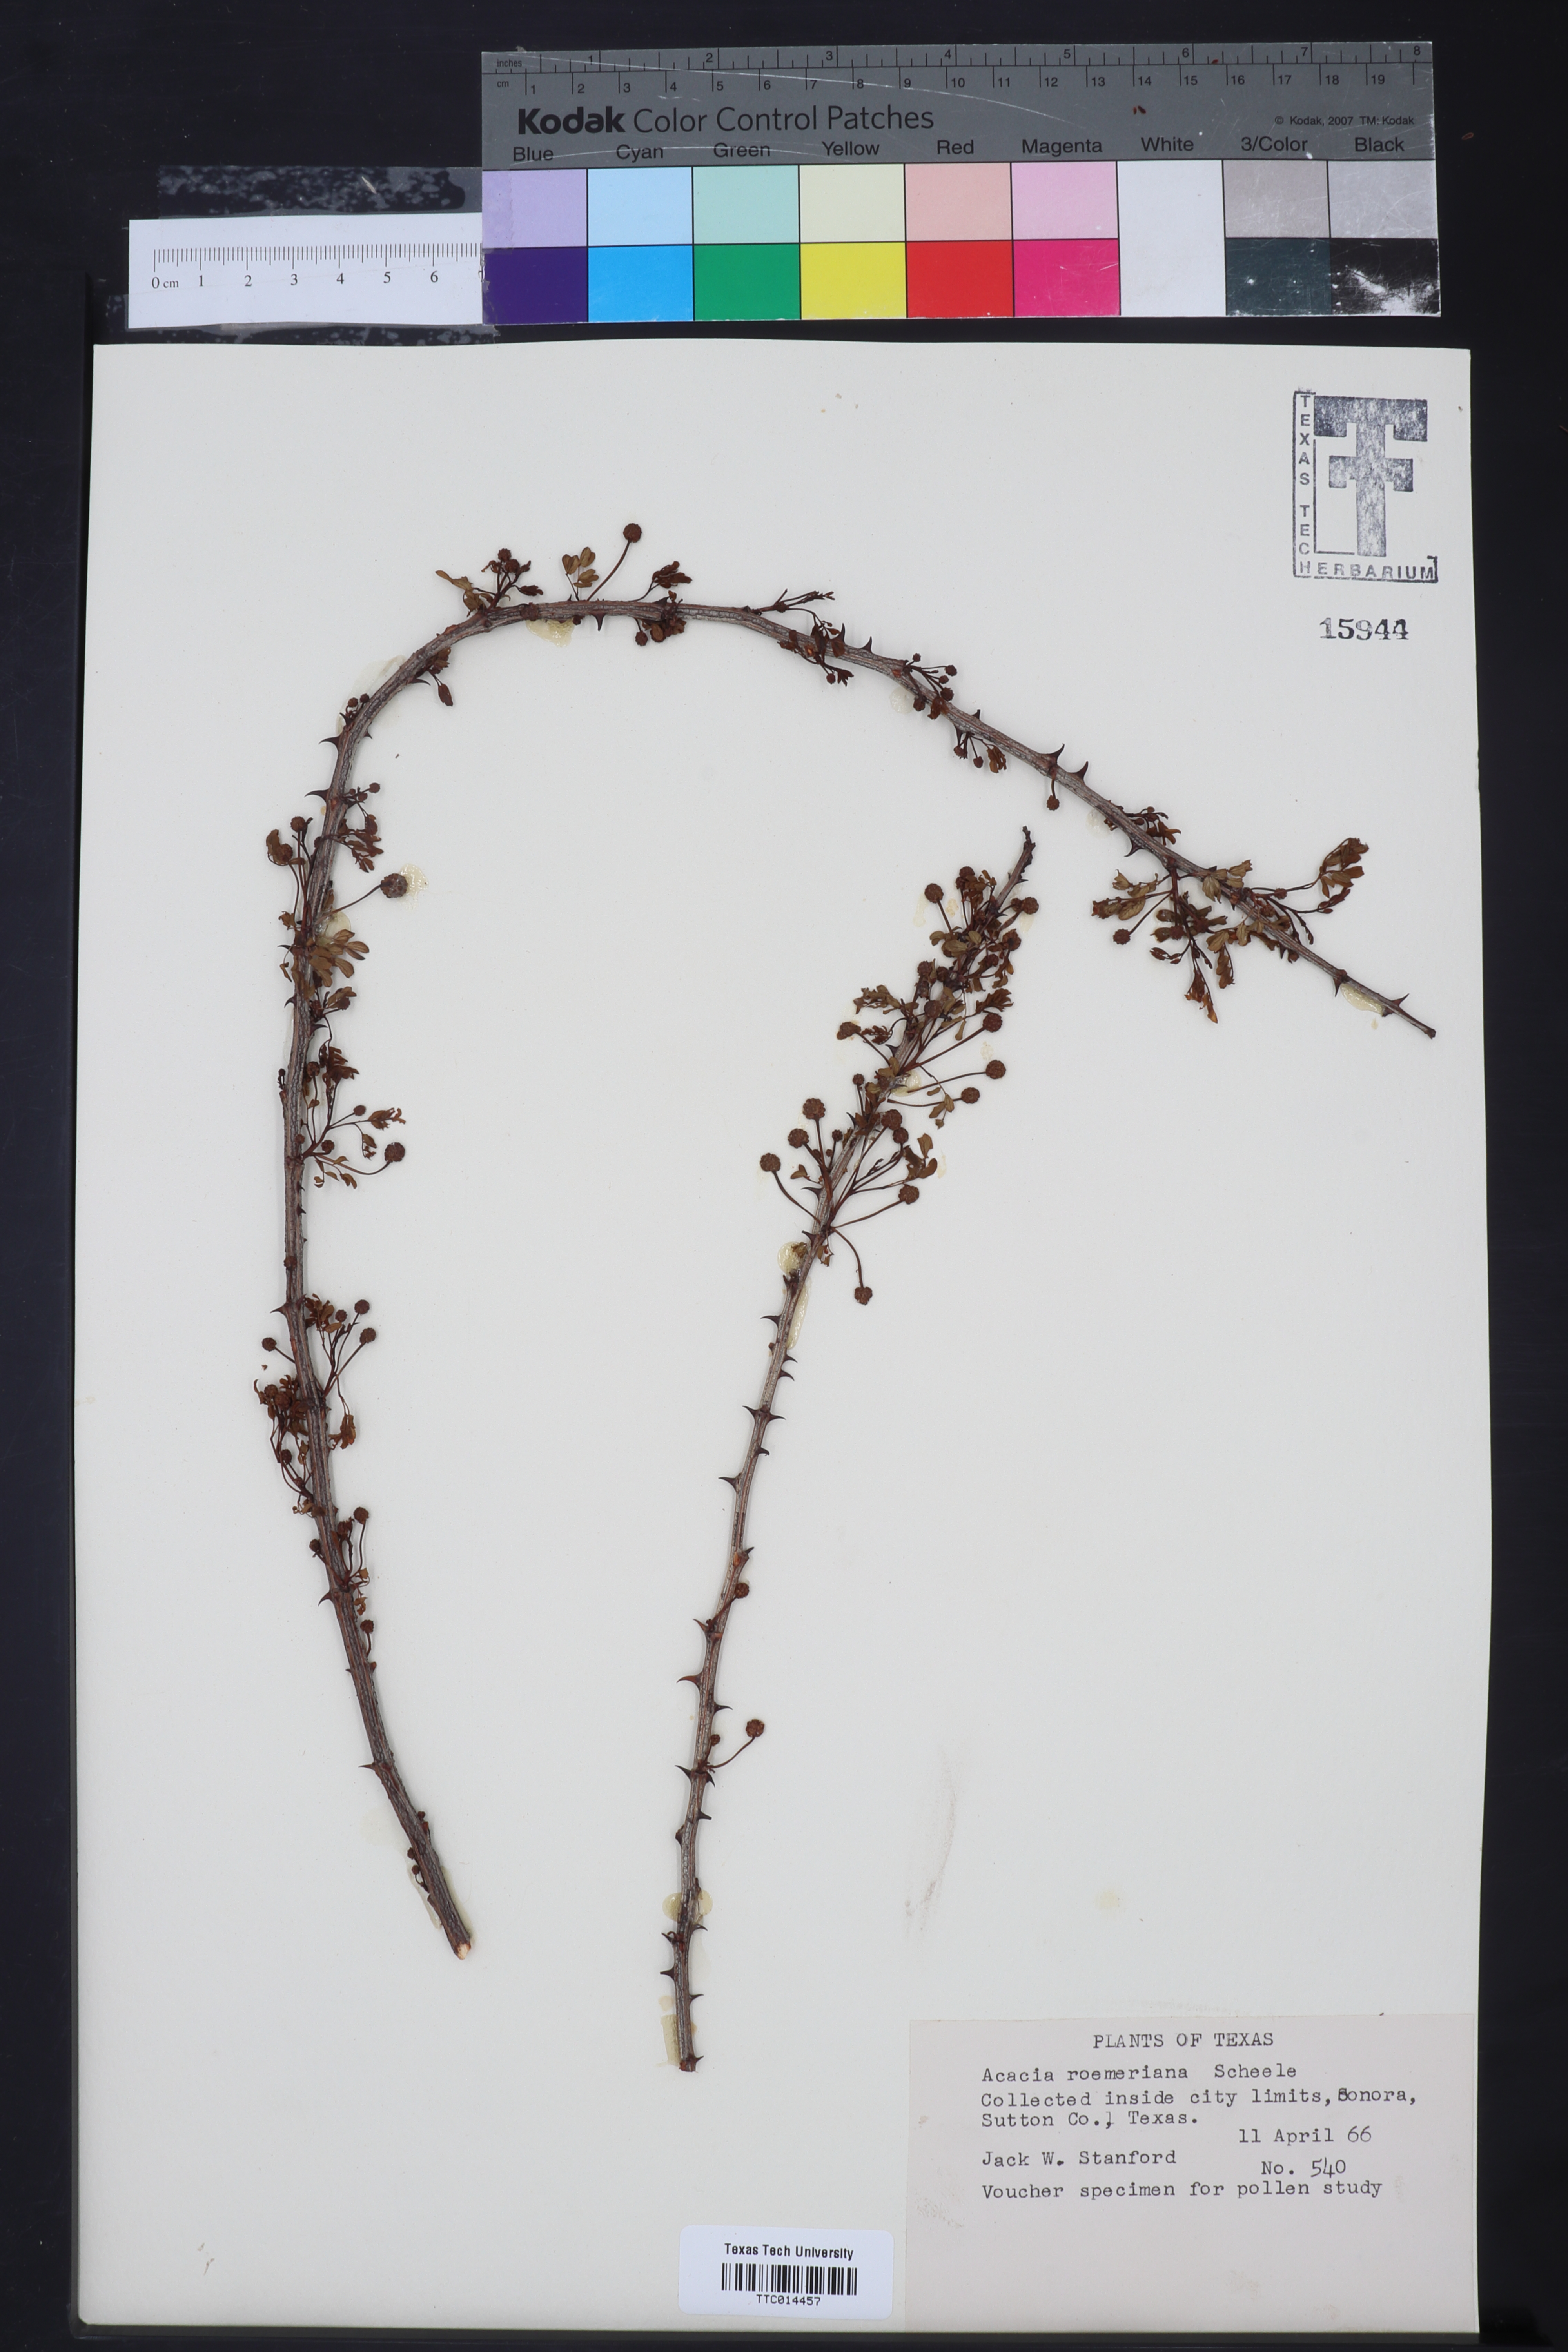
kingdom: Plantae
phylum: Tracheophyta
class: Magnoliopsida
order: Fabales
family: Fabaceae
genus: Senegalia
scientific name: Senegalia roemeriana
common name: Roemer's acacia
